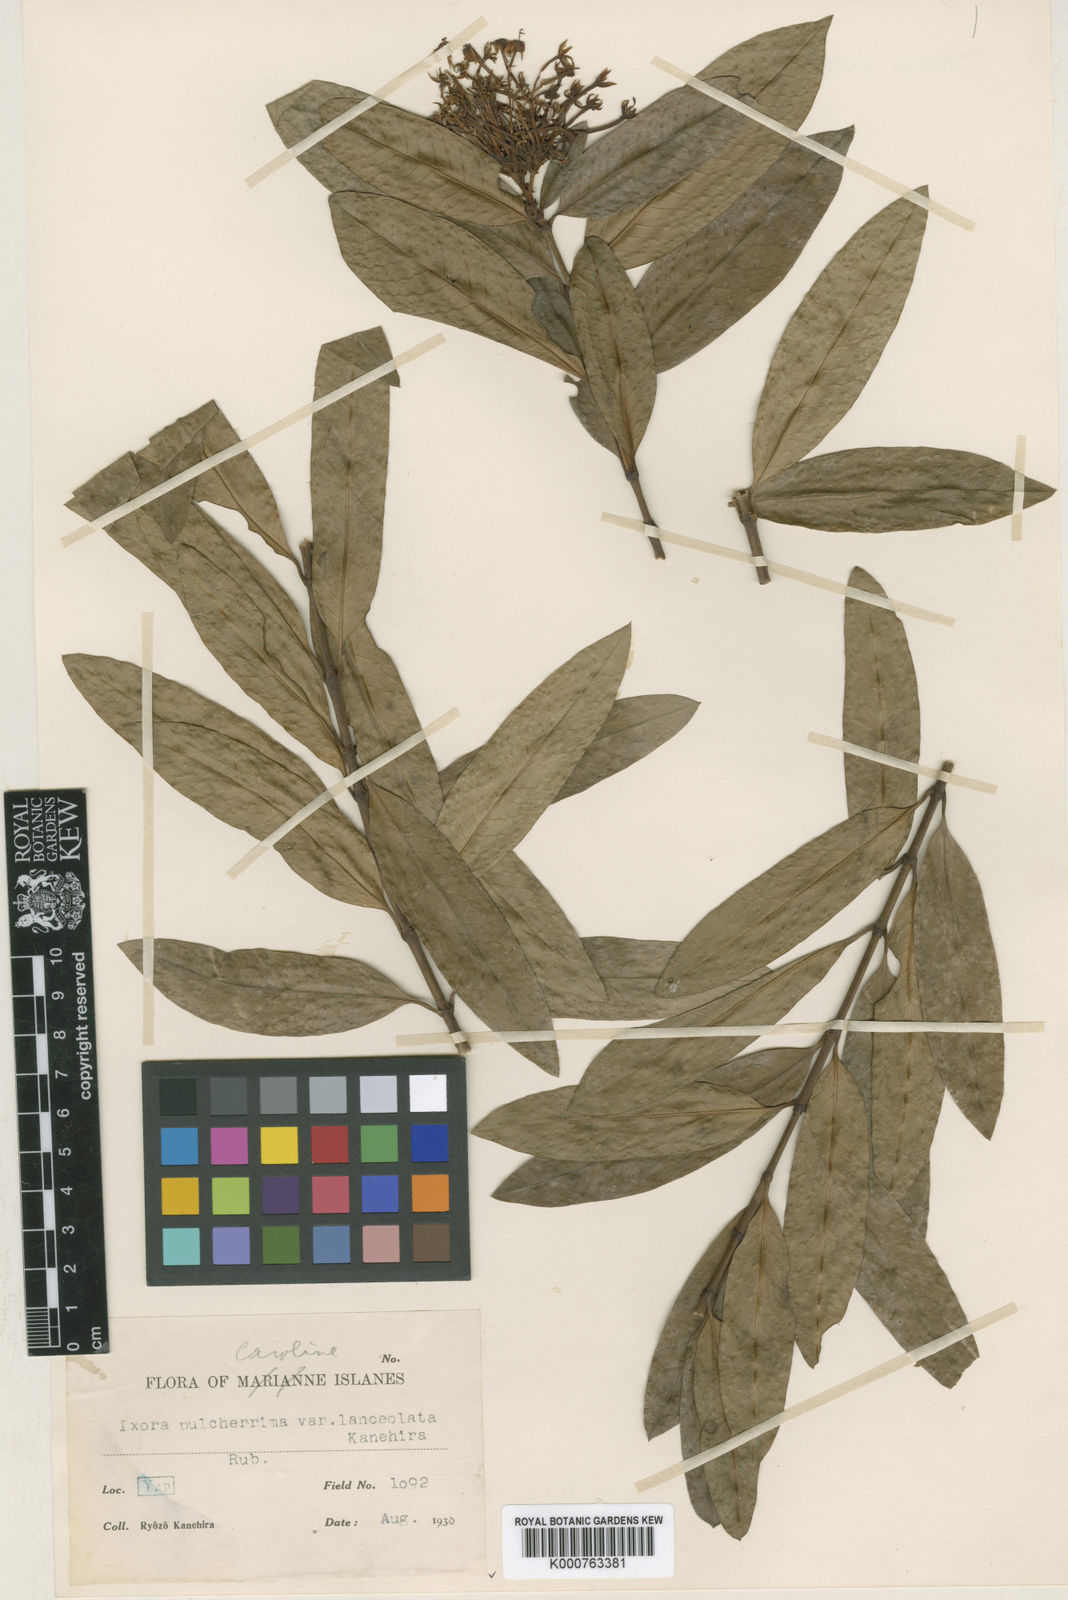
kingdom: Plantae
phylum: Tracheophyta
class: Magnoliopsida
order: Gentianales
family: Rubiaceae
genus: Ixora
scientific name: Ixora casei
